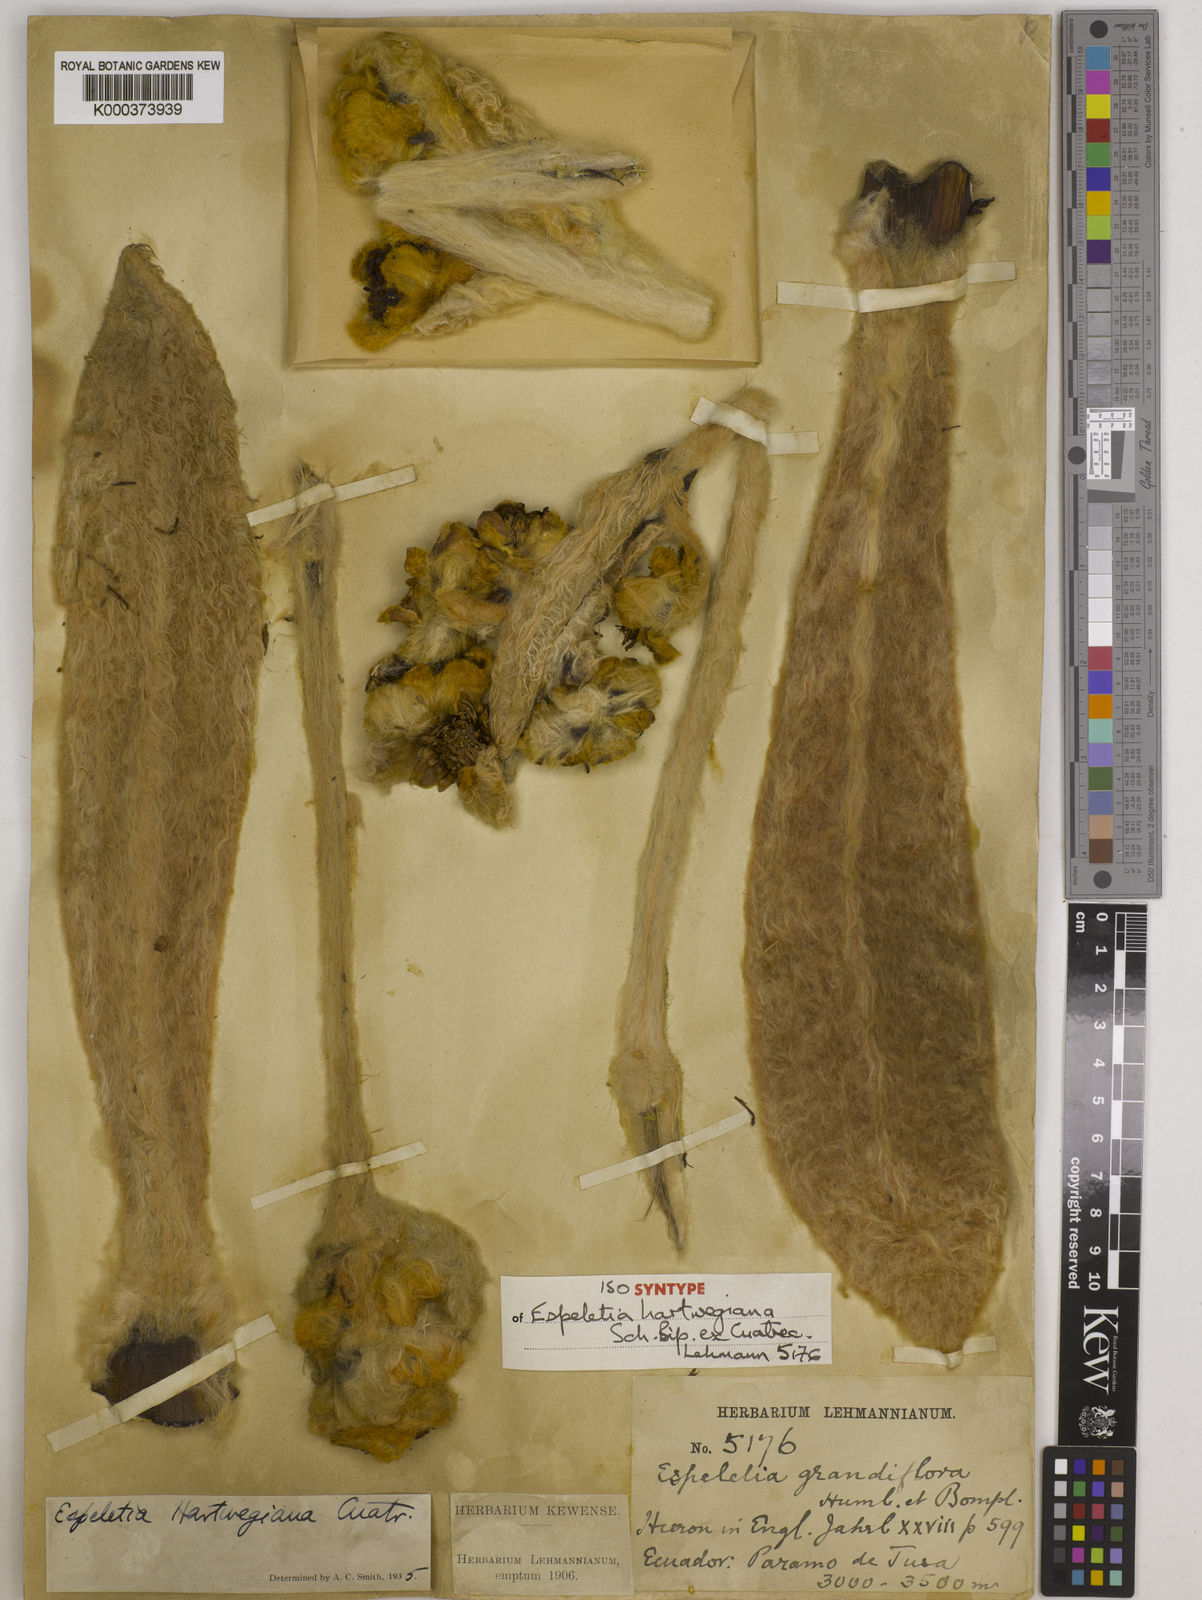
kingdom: Plantae
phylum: Tracheophyta
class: Magnoliopsida
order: Asterales
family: Asteraceae
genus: Espeletia
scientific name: Espeletia hartwegiana
